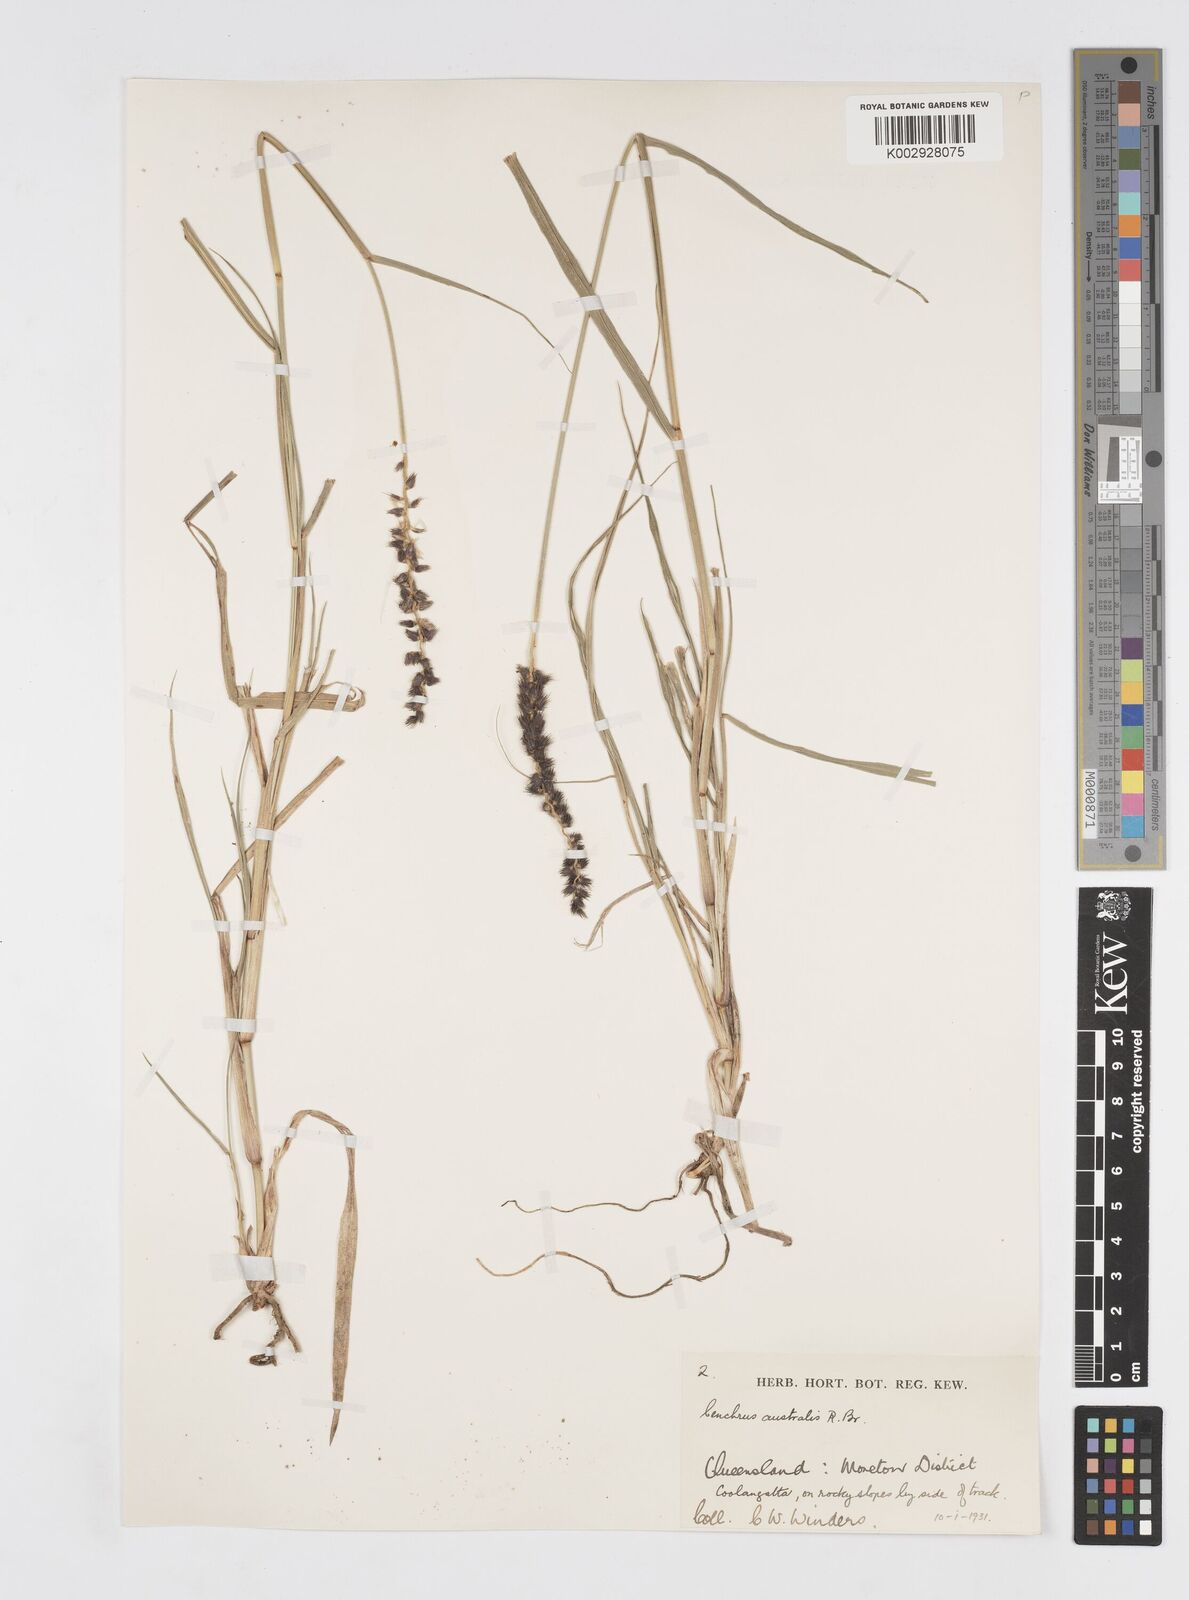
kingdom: Plantae
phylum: Tracheophyta
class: Liliopsida
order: Poales
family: Poaceae
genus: Cenchrus
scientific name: Cenchrus caliculatus
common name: Large bur grass
